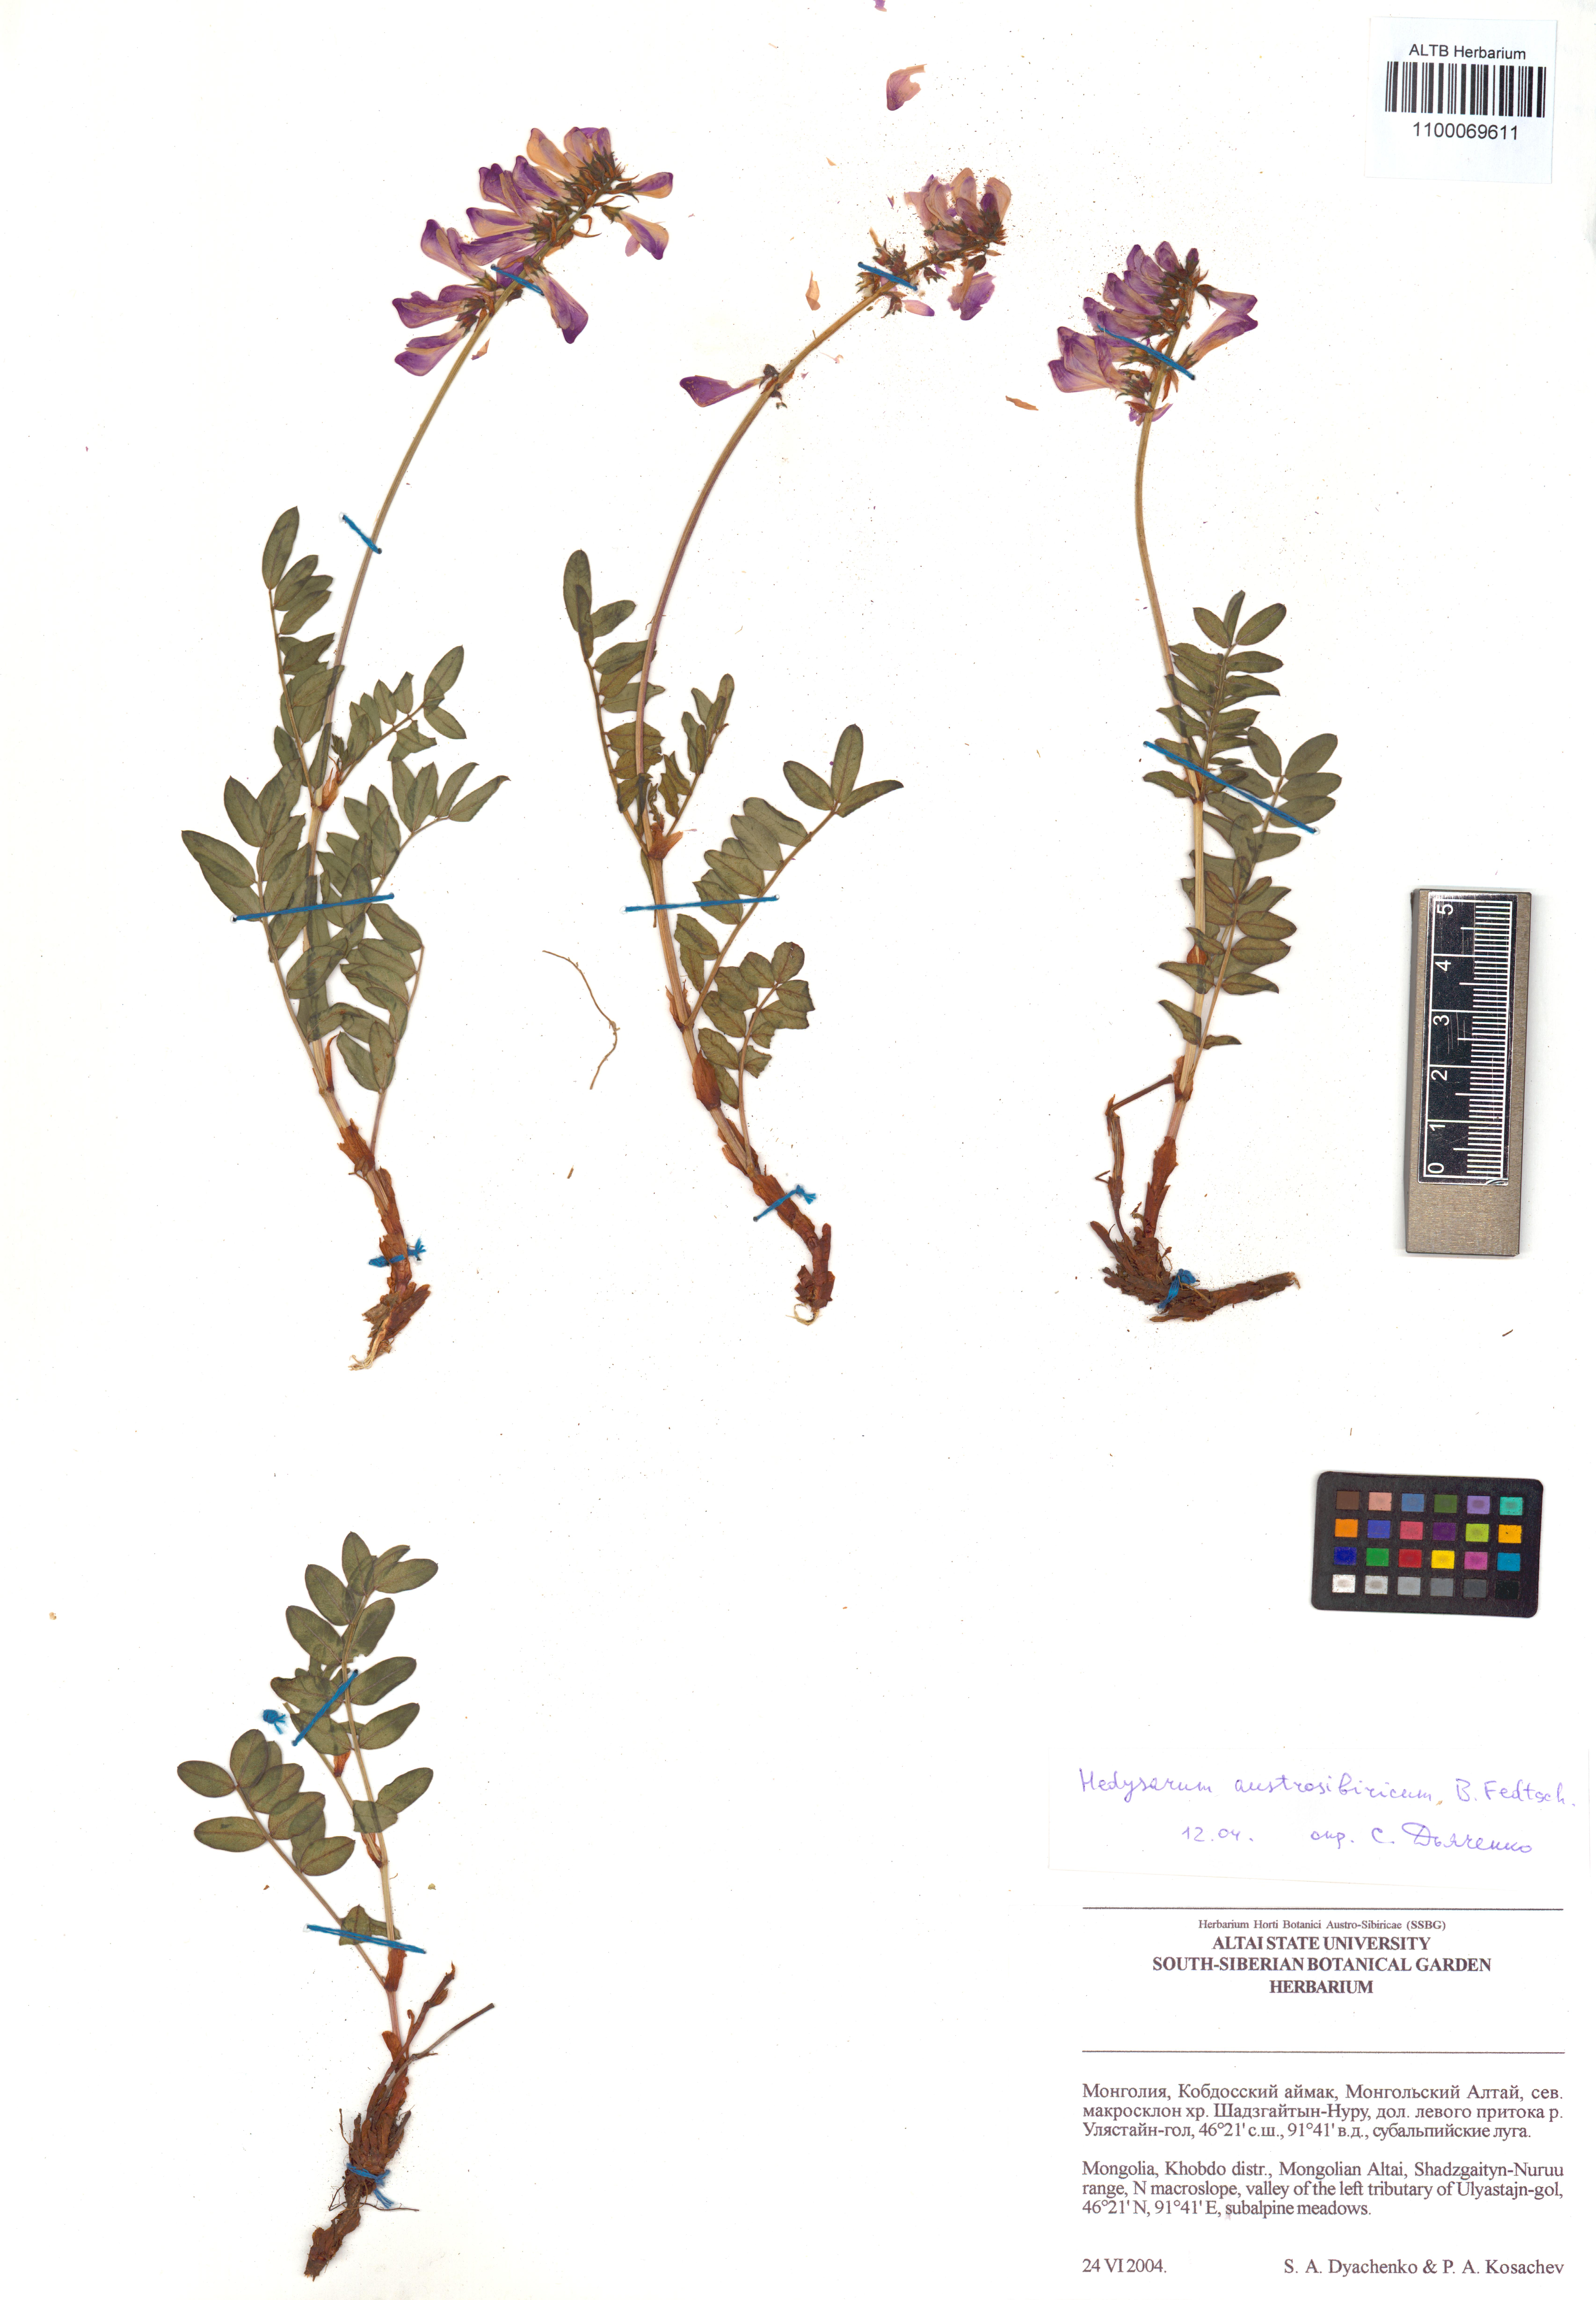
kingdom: Plantae
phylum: Tracheophyta
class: Magnoliopsida
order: Fabales
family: Fabaceae
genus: Hedysarum
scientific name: Hedysarum neglectum
